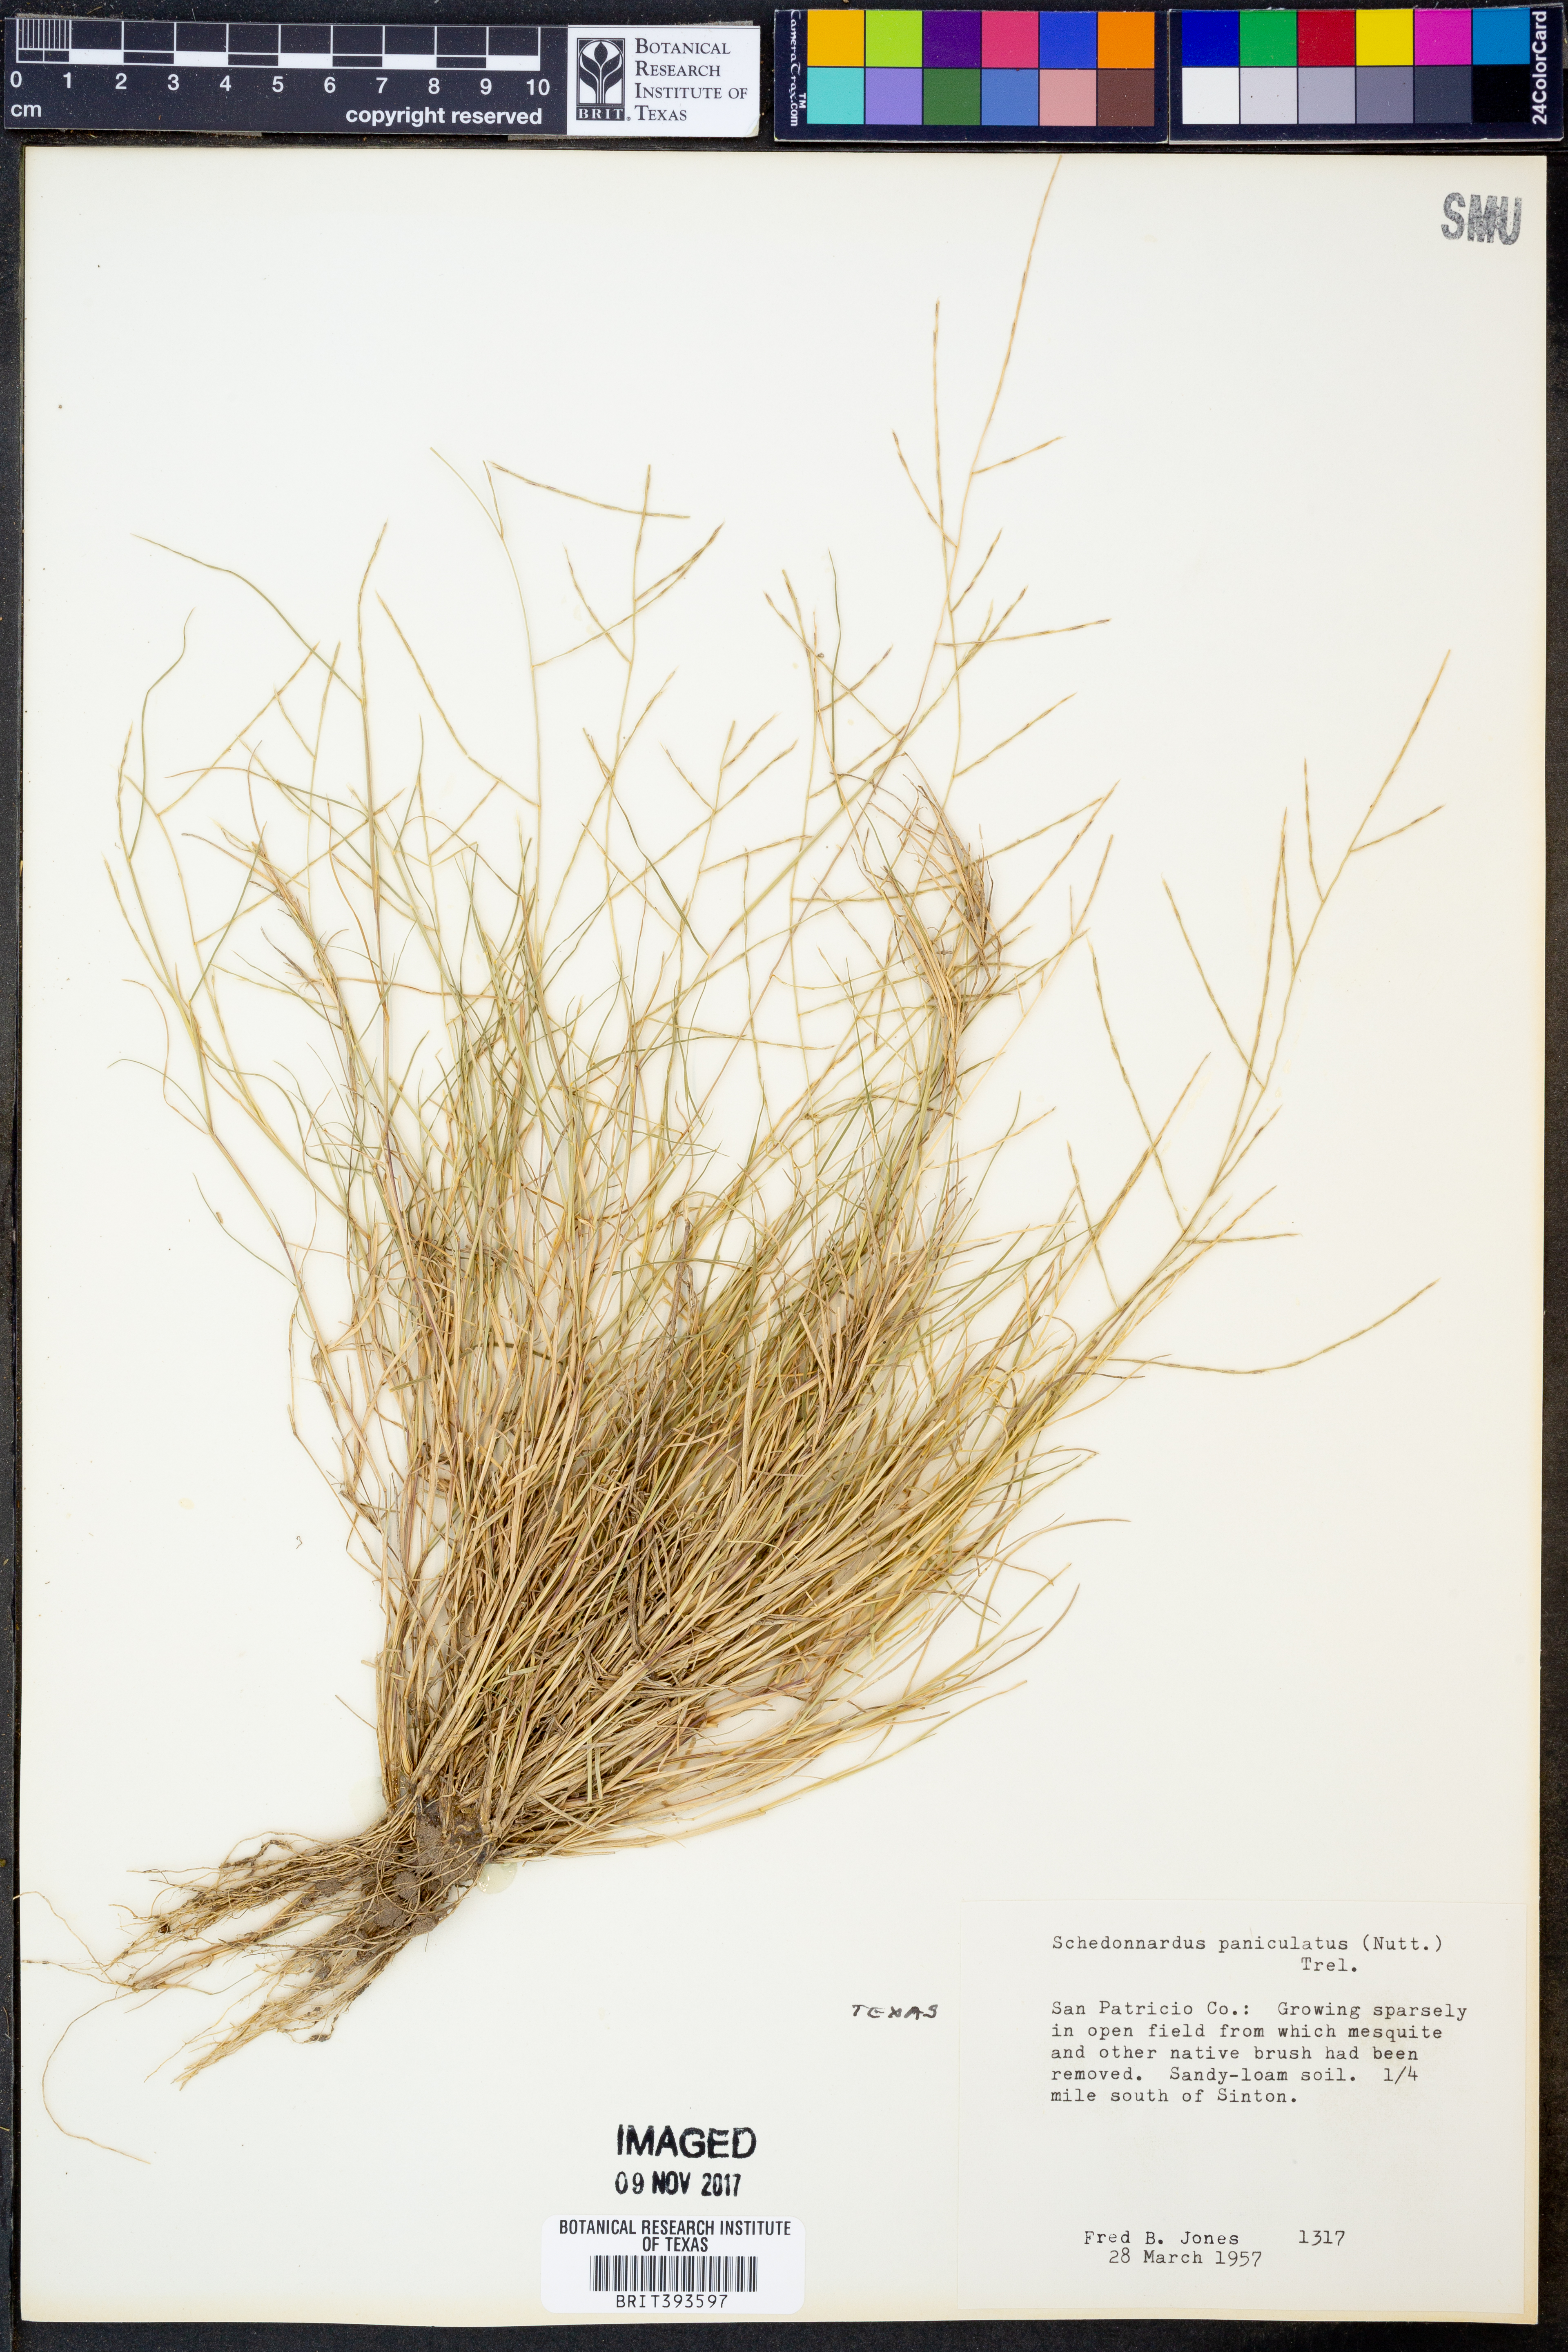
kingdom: Plantae
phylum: Tracheophyta
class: Liliopsida
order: Poales
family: Poaceae
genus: Muhlenbergia
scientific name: Muhlenbergia paniculata
